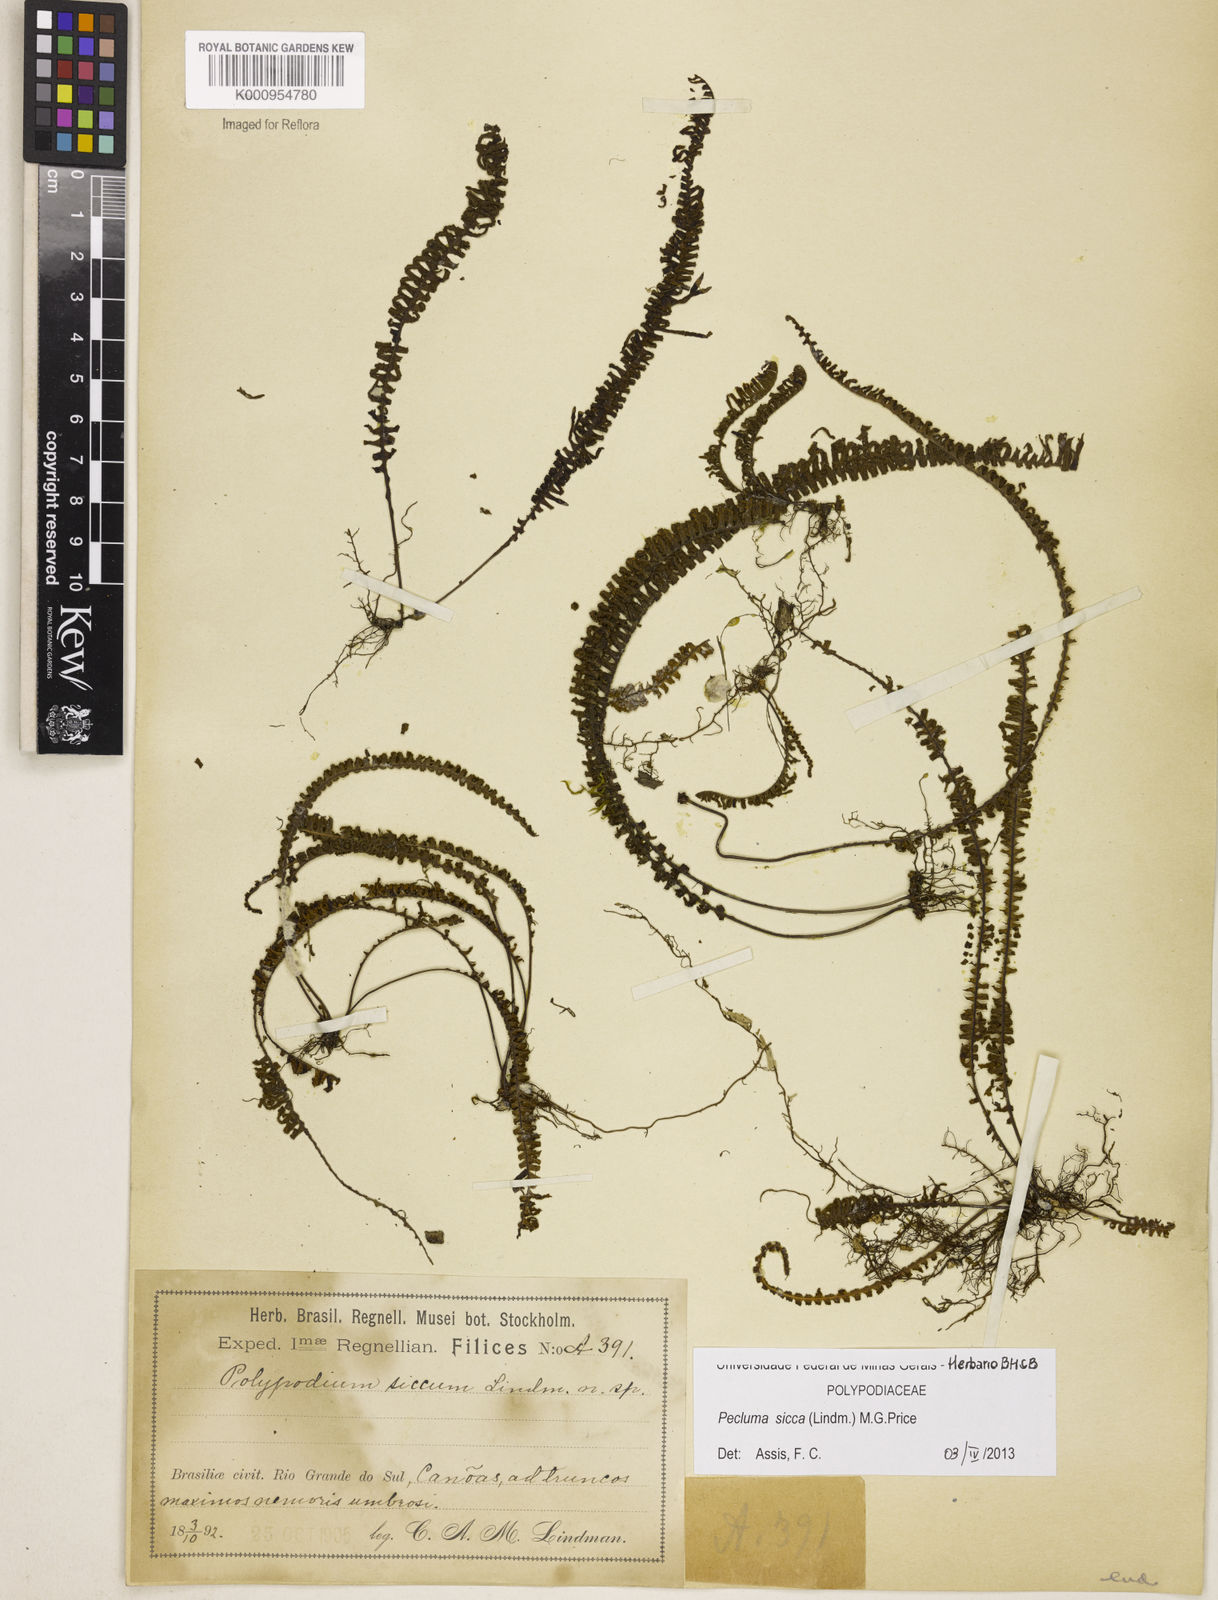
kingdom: Plantae
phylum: Tracheophyta
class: Polypodiopsida
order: Polypodiales
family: Polypodiaceae
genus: Pecluma
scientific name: Pecluma sicca
